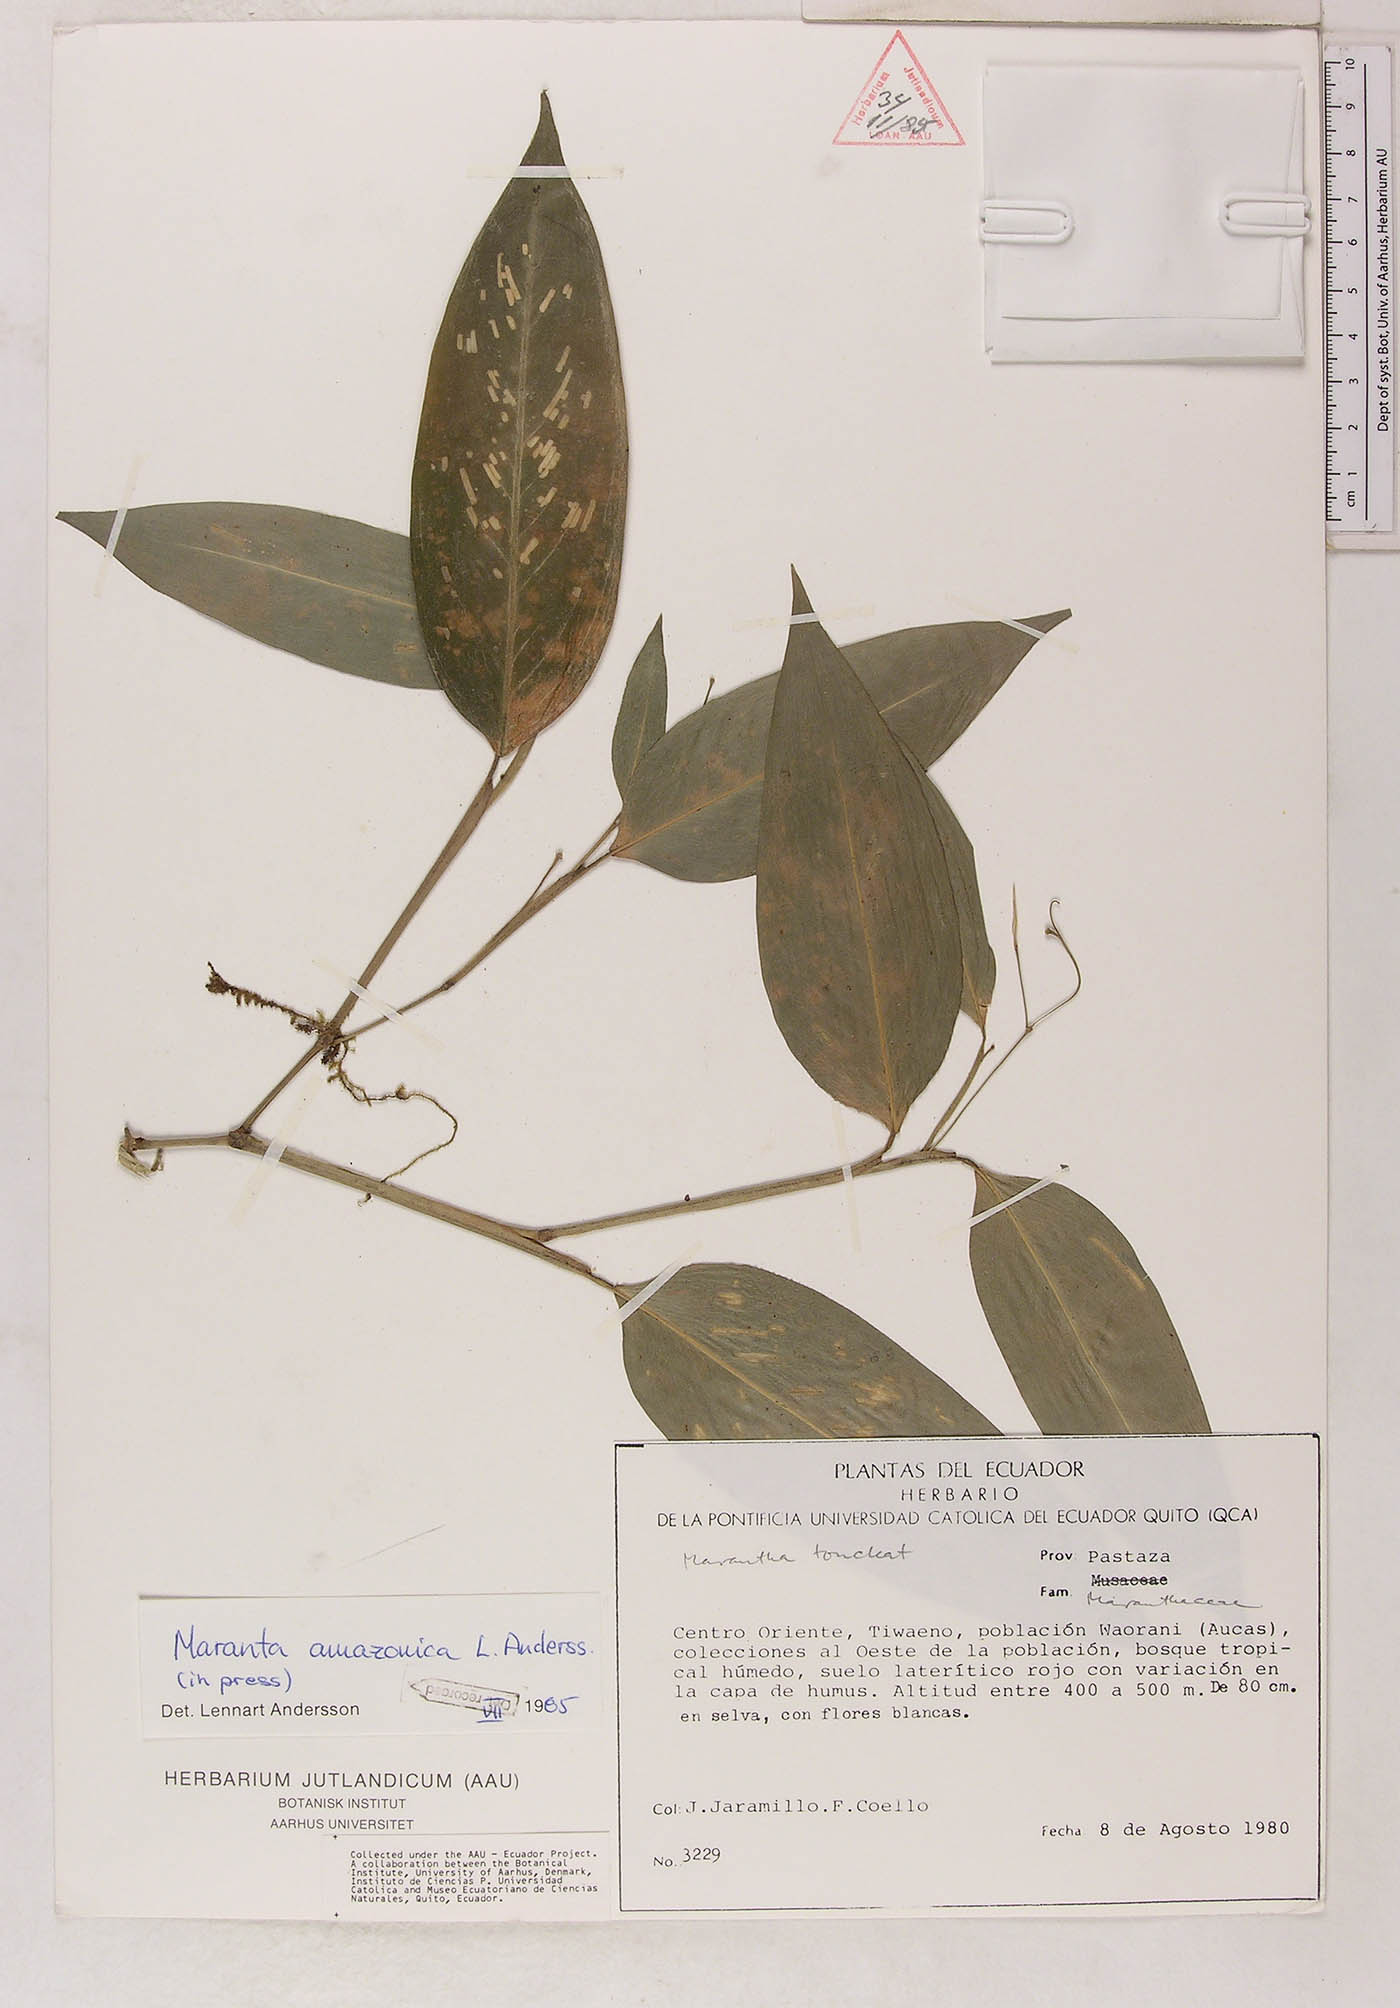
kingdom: Plantae
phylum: Tracheophyta
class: Liliopsida
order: Zingiberales
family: Marantaceae
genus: Maranta
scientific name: Maranta amazonica
